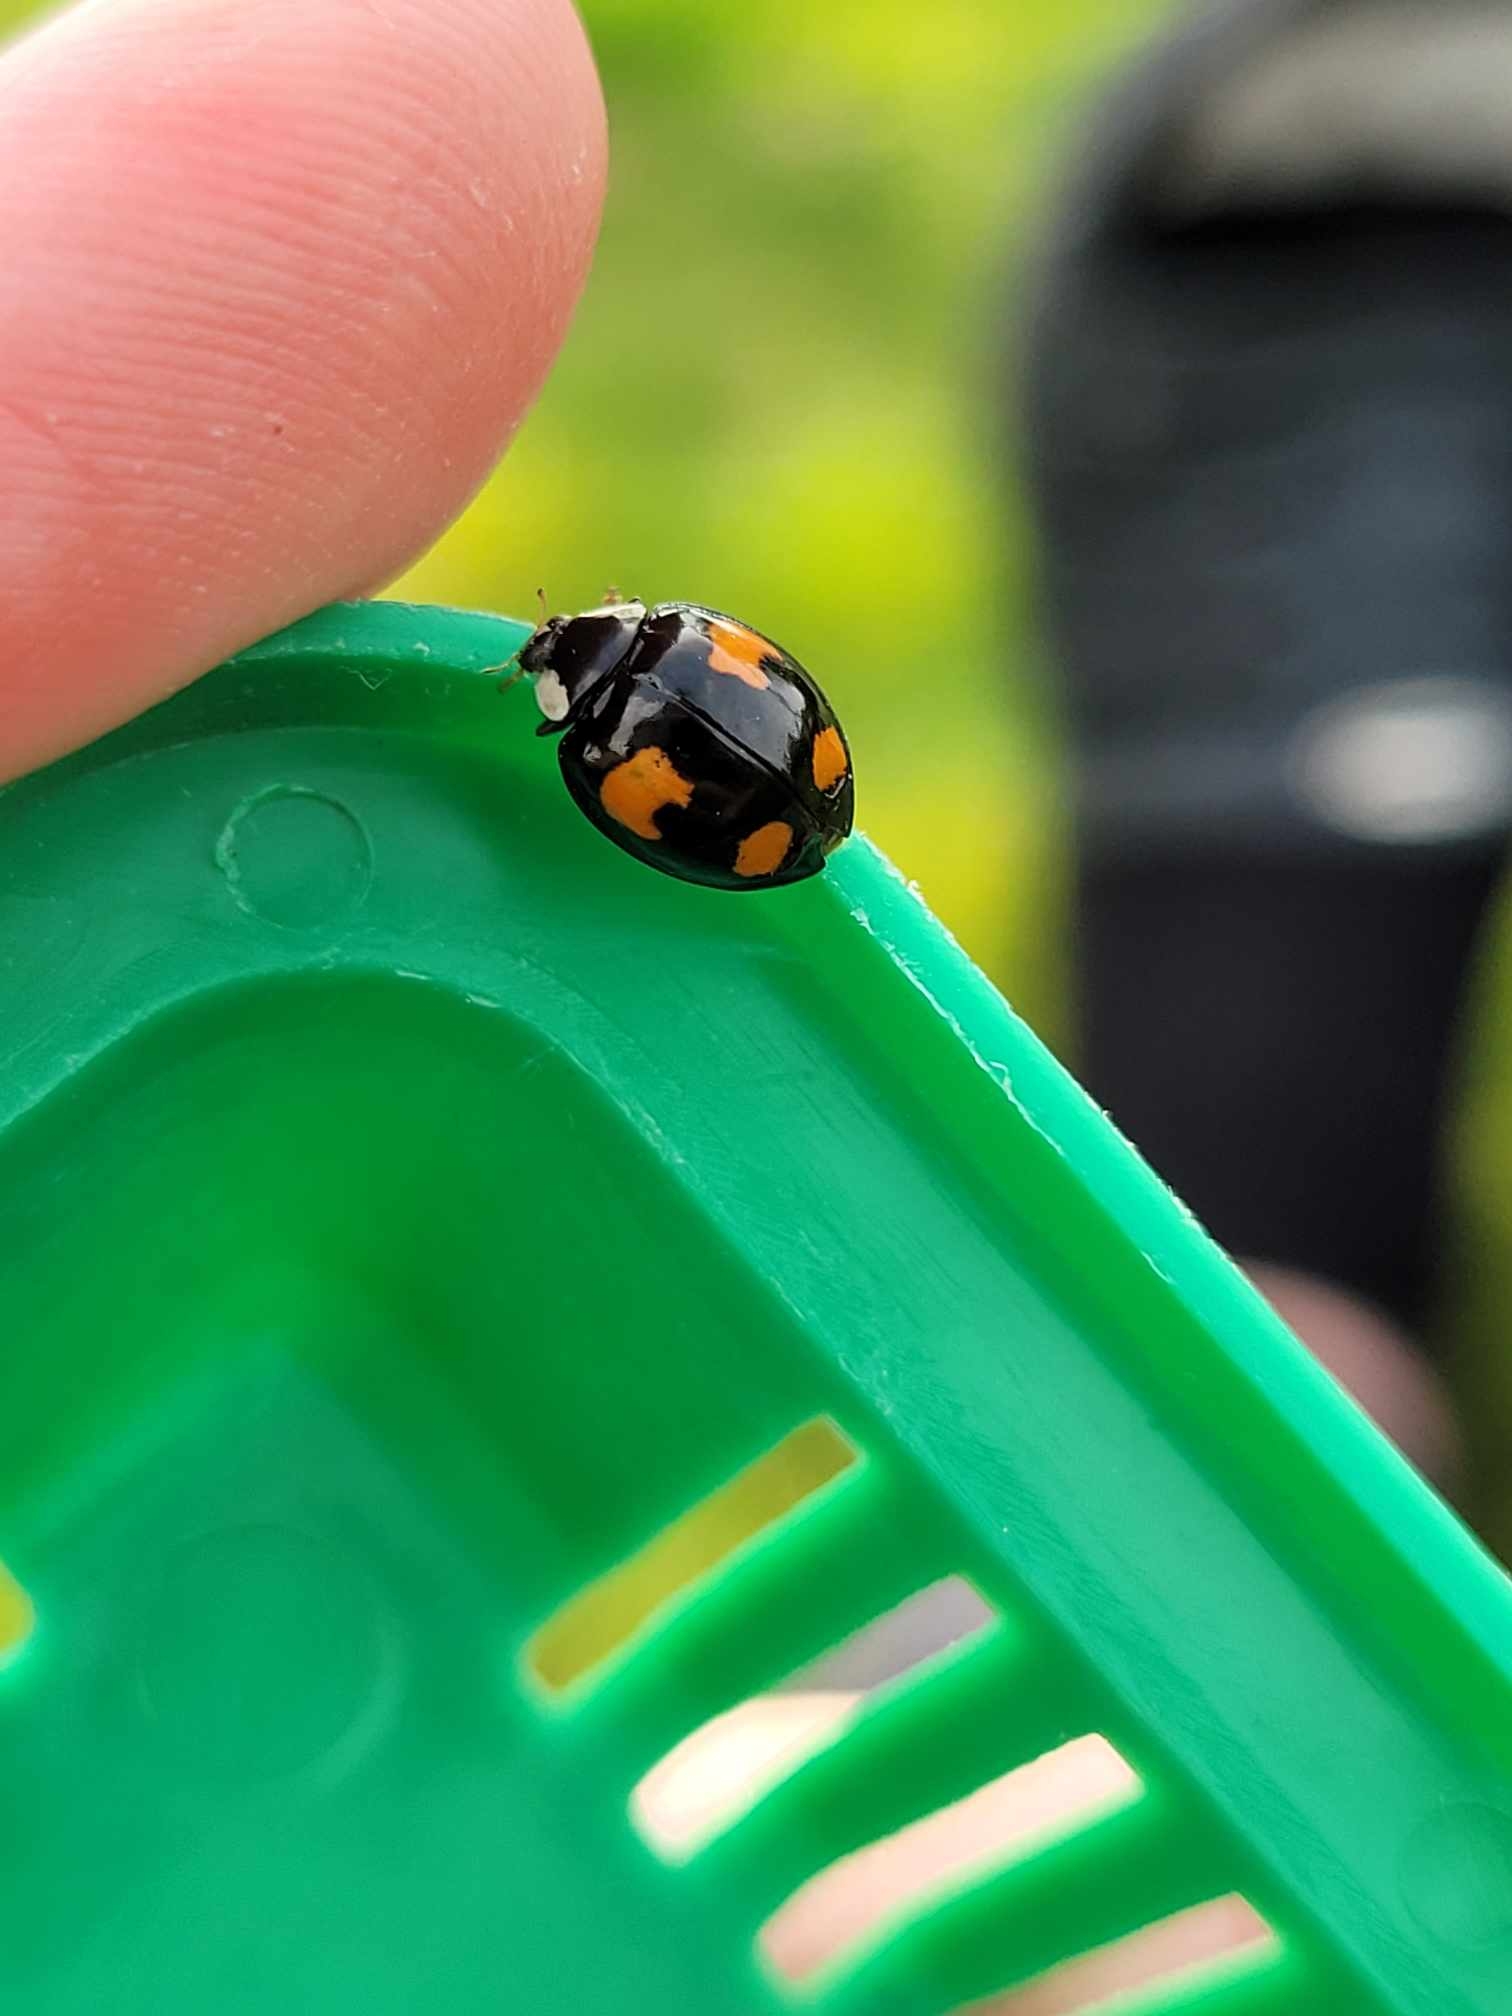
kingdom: Animalia
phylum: Arthropoda
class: Insecta
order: Coleoptera
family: Coccinellidae
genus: Harmonia
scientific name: Harmonia axyridis
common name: Harlekinmariehøne
